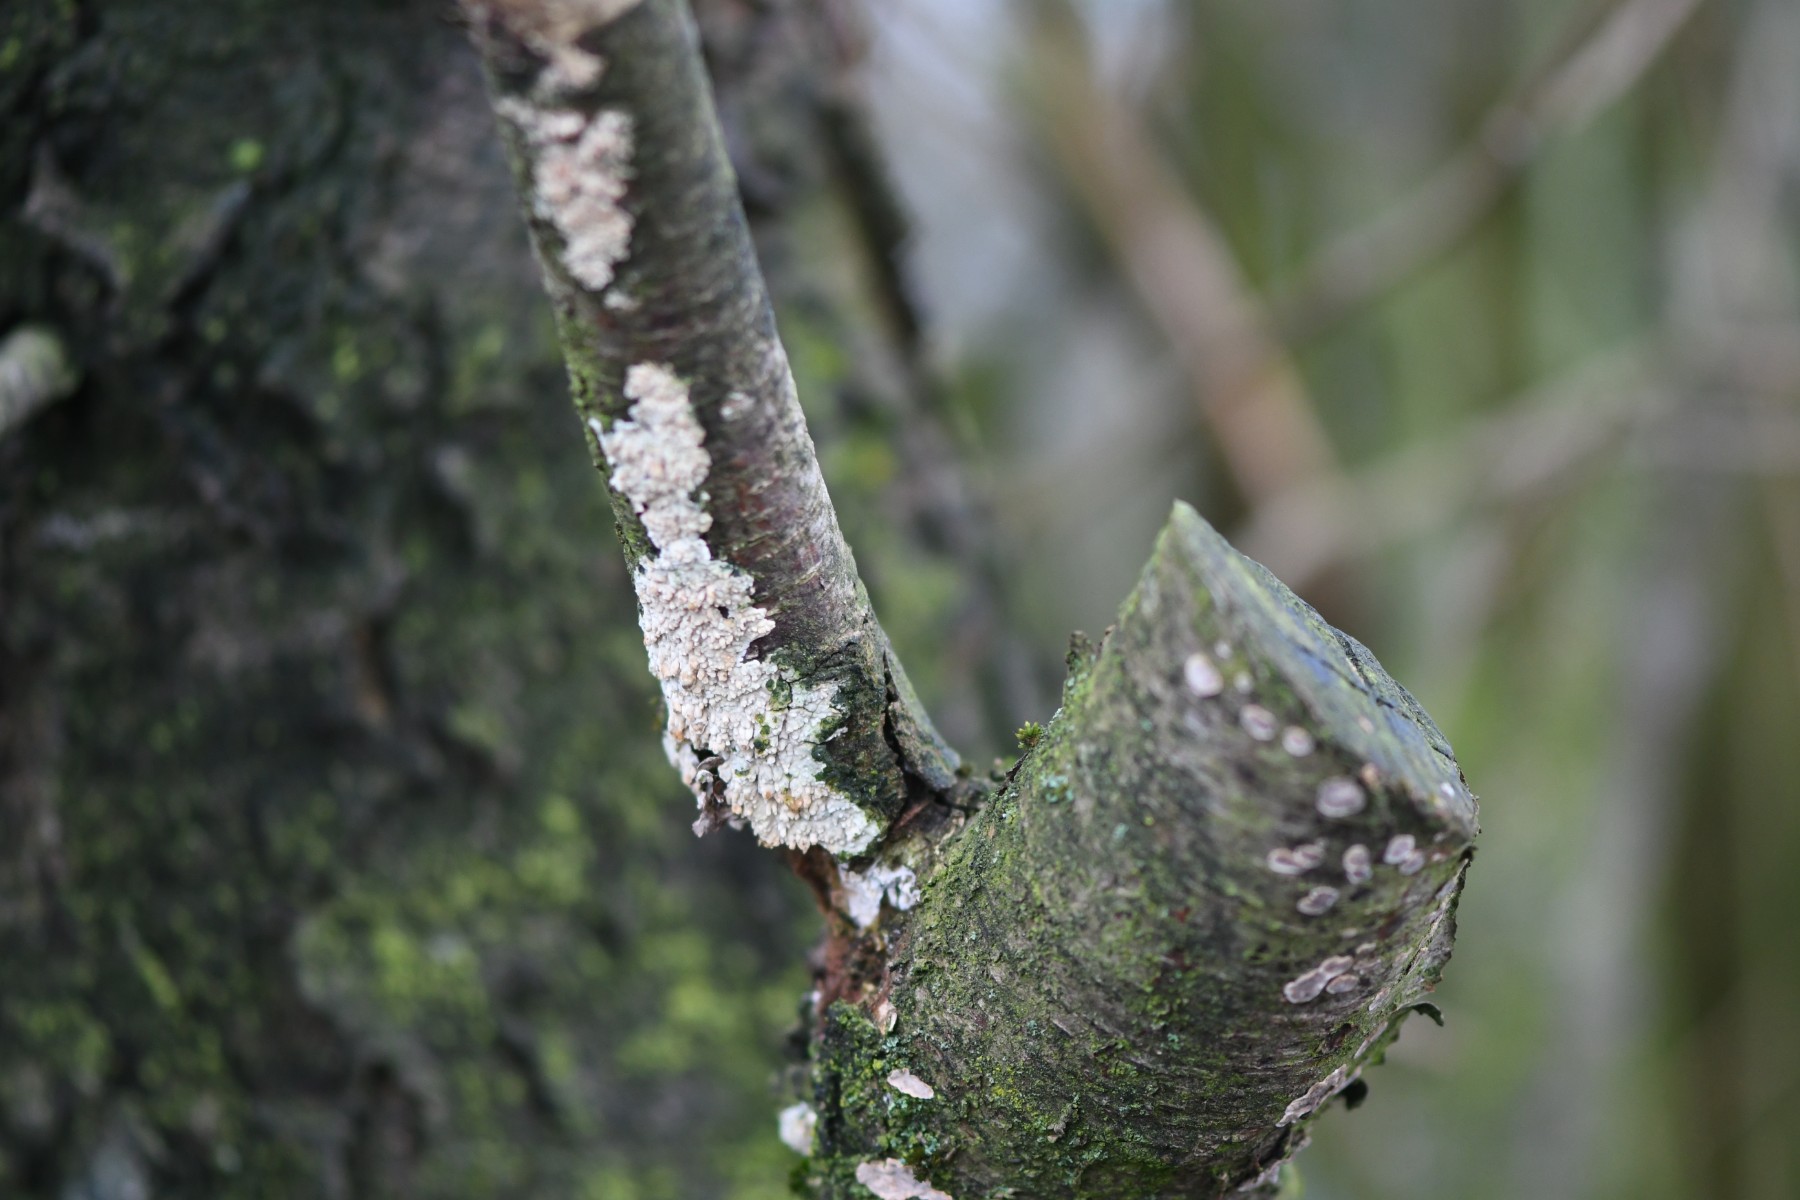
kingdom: Fungi
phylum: Basidiomycota
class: Agaricomycetes
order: Hymenochaetales
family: Schizoporaceae
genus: Xylodon
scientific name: Xylodon radula
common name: grovtandet kalkskind
